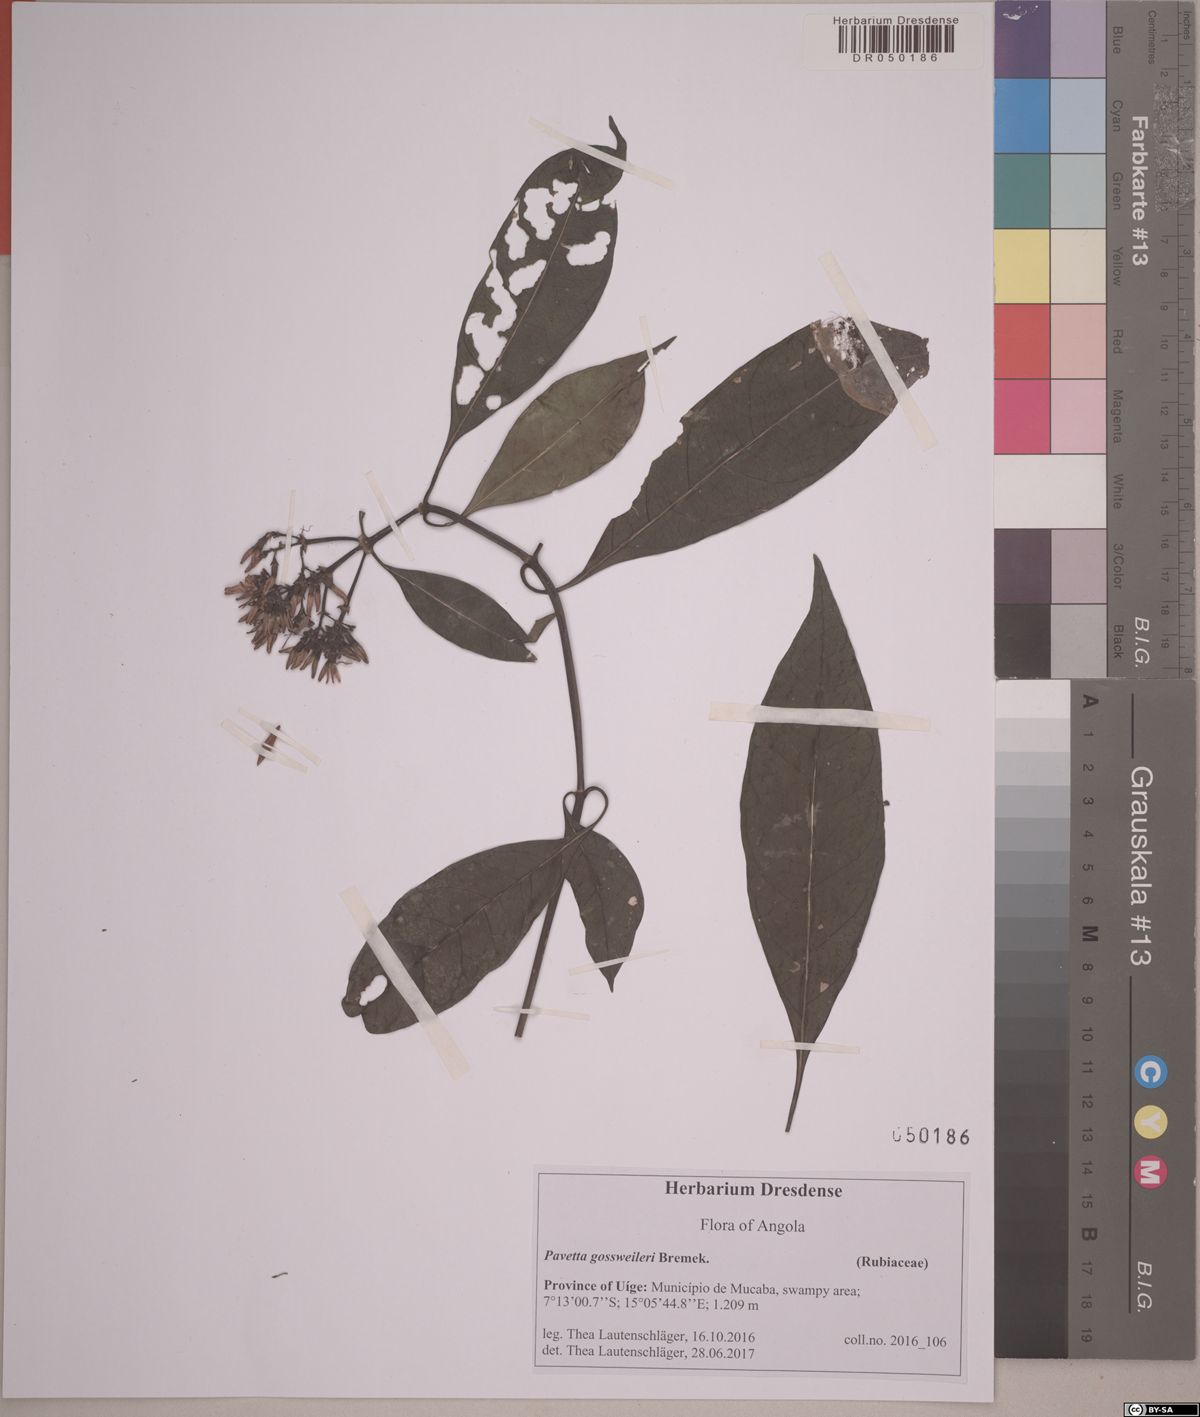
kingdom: Plantae
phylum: Tracheophyta
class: Magnoliopsida
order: Gentianales
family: Rubiaceae
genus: Pavetta
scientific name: Pavetta nitidula
